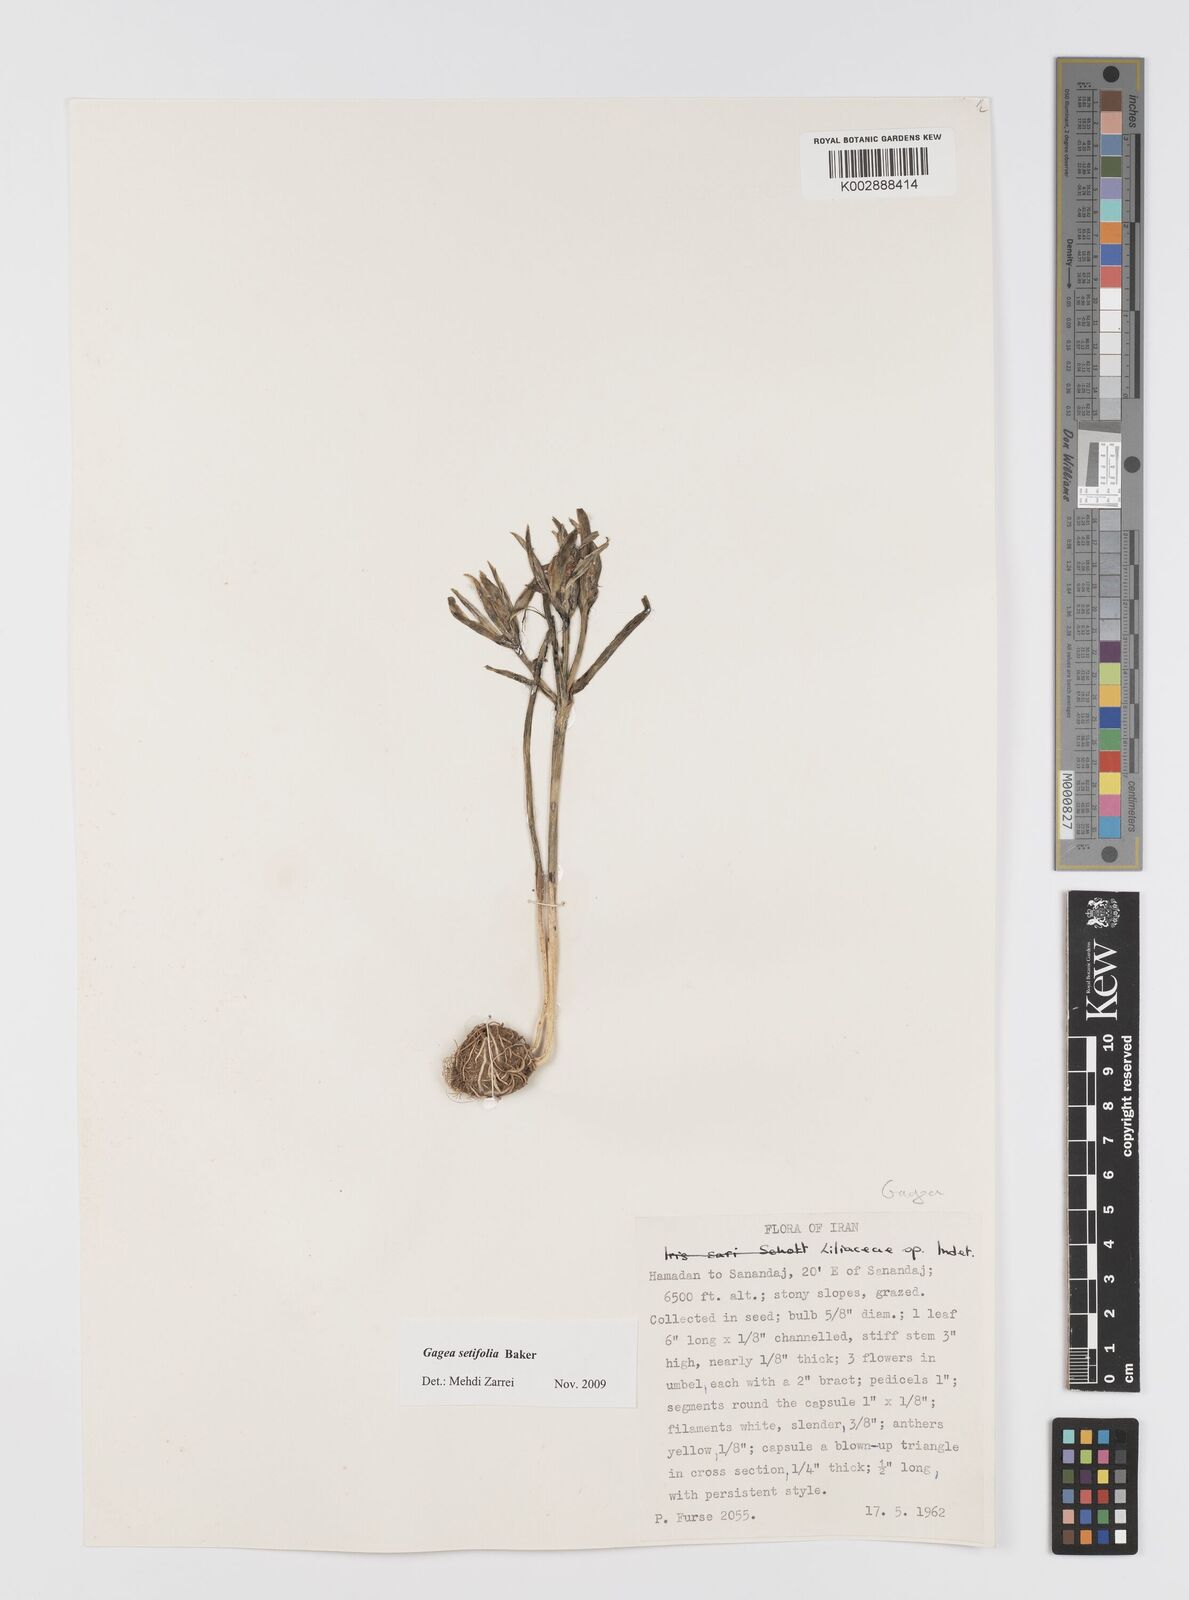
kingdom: Plantae
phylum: Tracheophyta
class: Liliopsida
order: Liliales
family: Liliaceae
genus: Gagea
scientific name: Gagea setifolia
